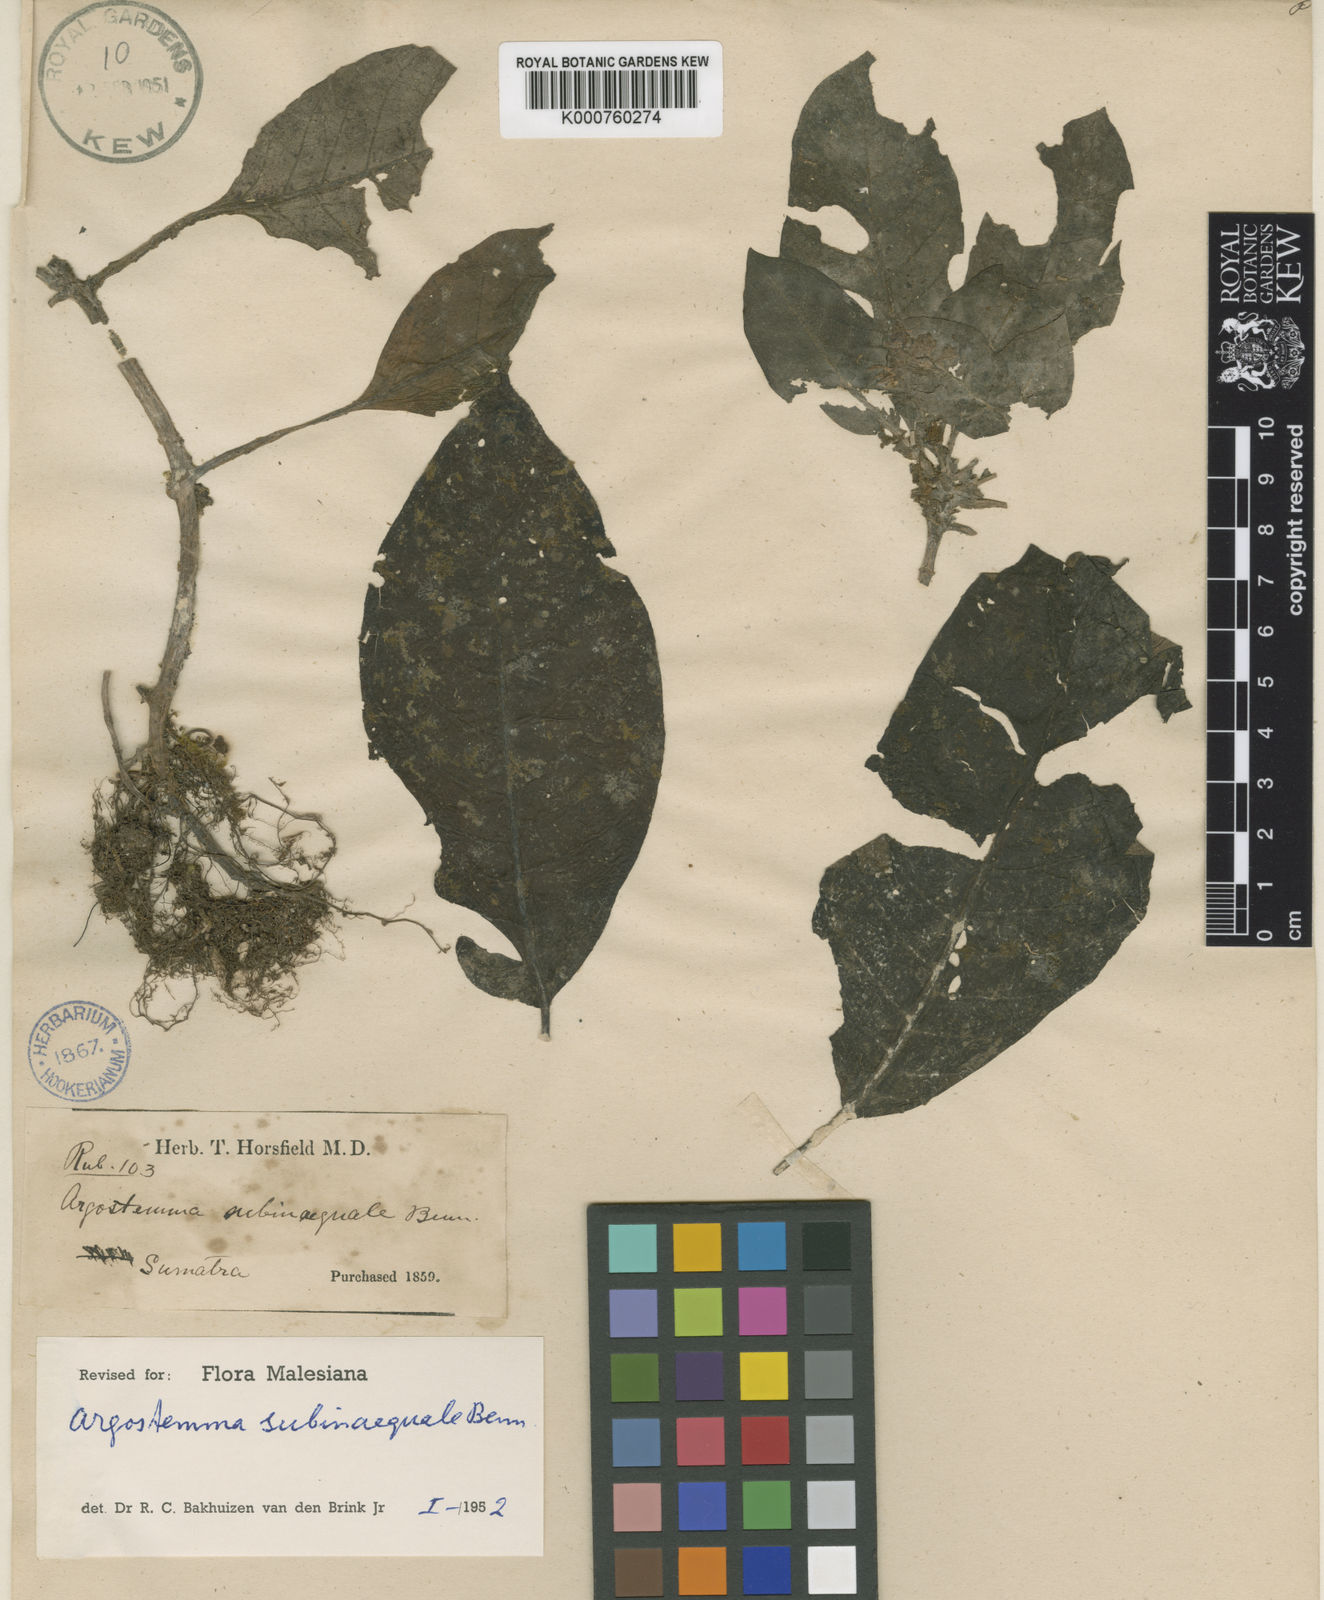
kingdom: Plantae
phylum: Tracheophyta
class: Magnoliopsida
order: Gentianales
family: Rubiaceae
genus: Argostemma
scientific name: Argostemma subinaequale
